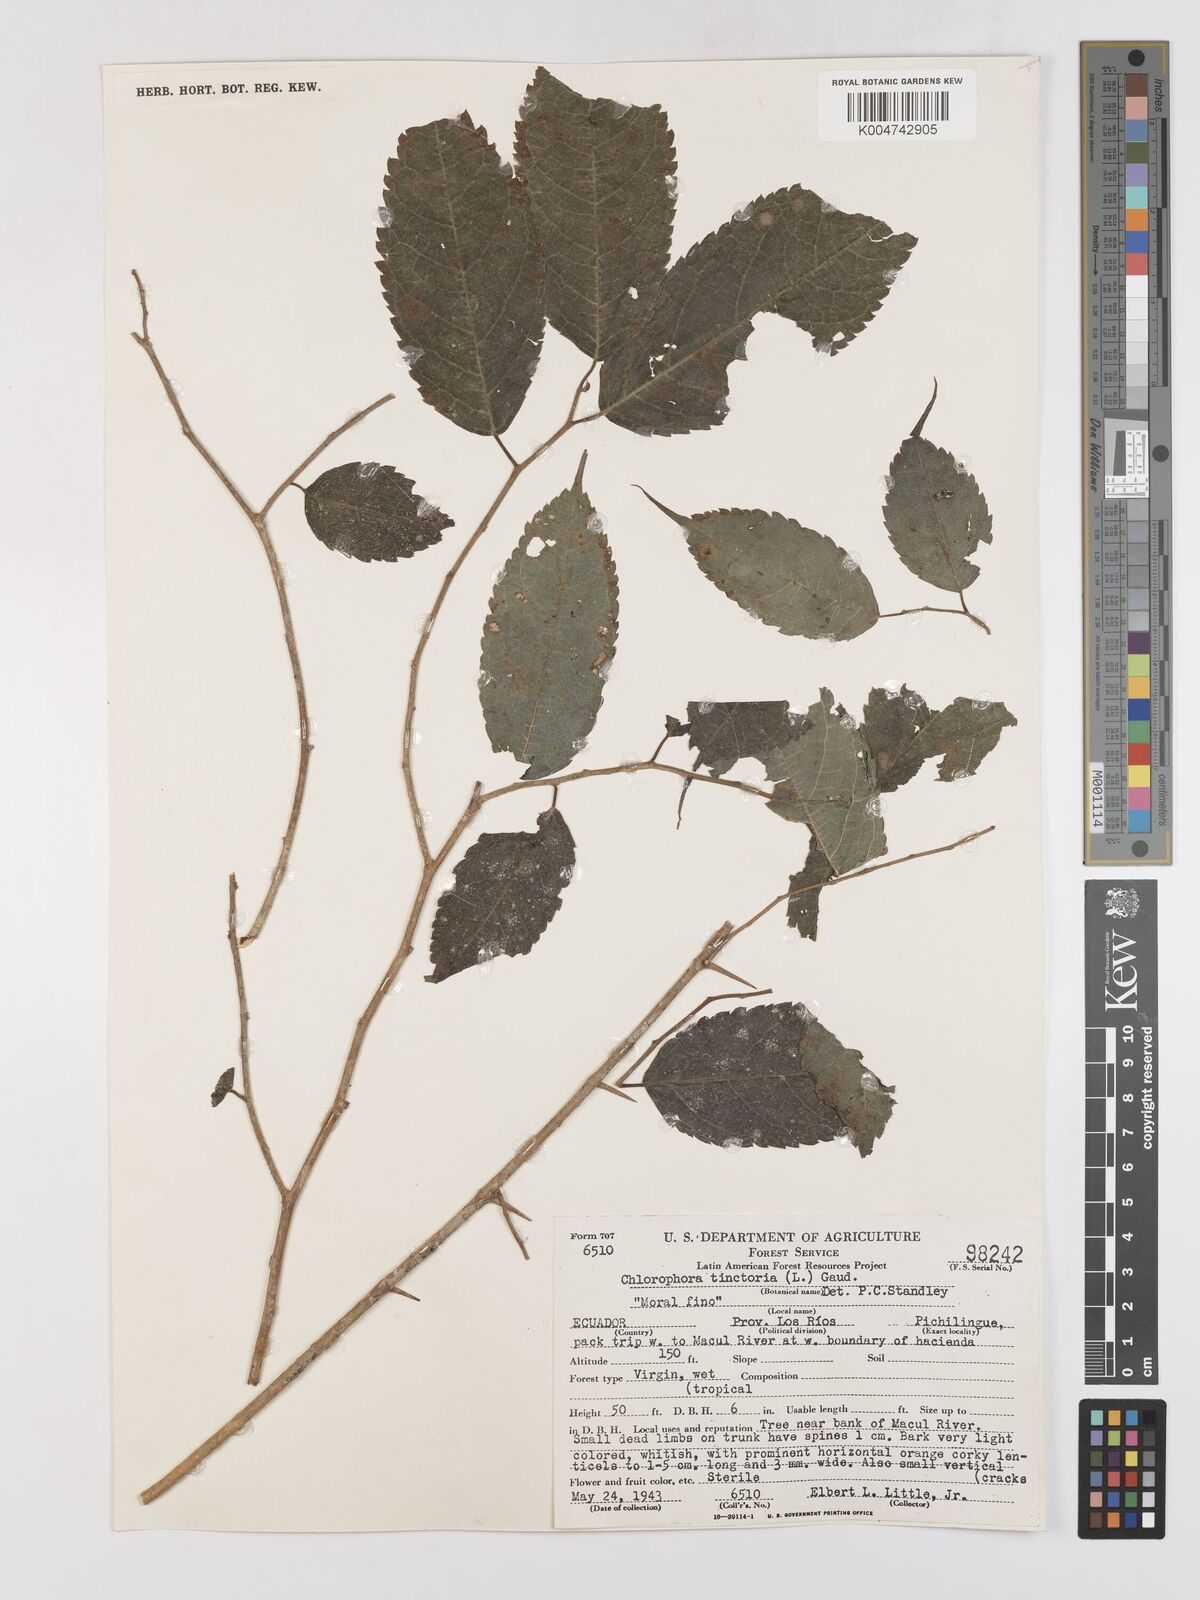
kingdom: Plantae
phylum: Tracheophyta
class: Magnoliopsida
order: Rosales
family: Moraceae
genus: Maclura
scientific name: Maclura tinctoria
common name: Old fustic
